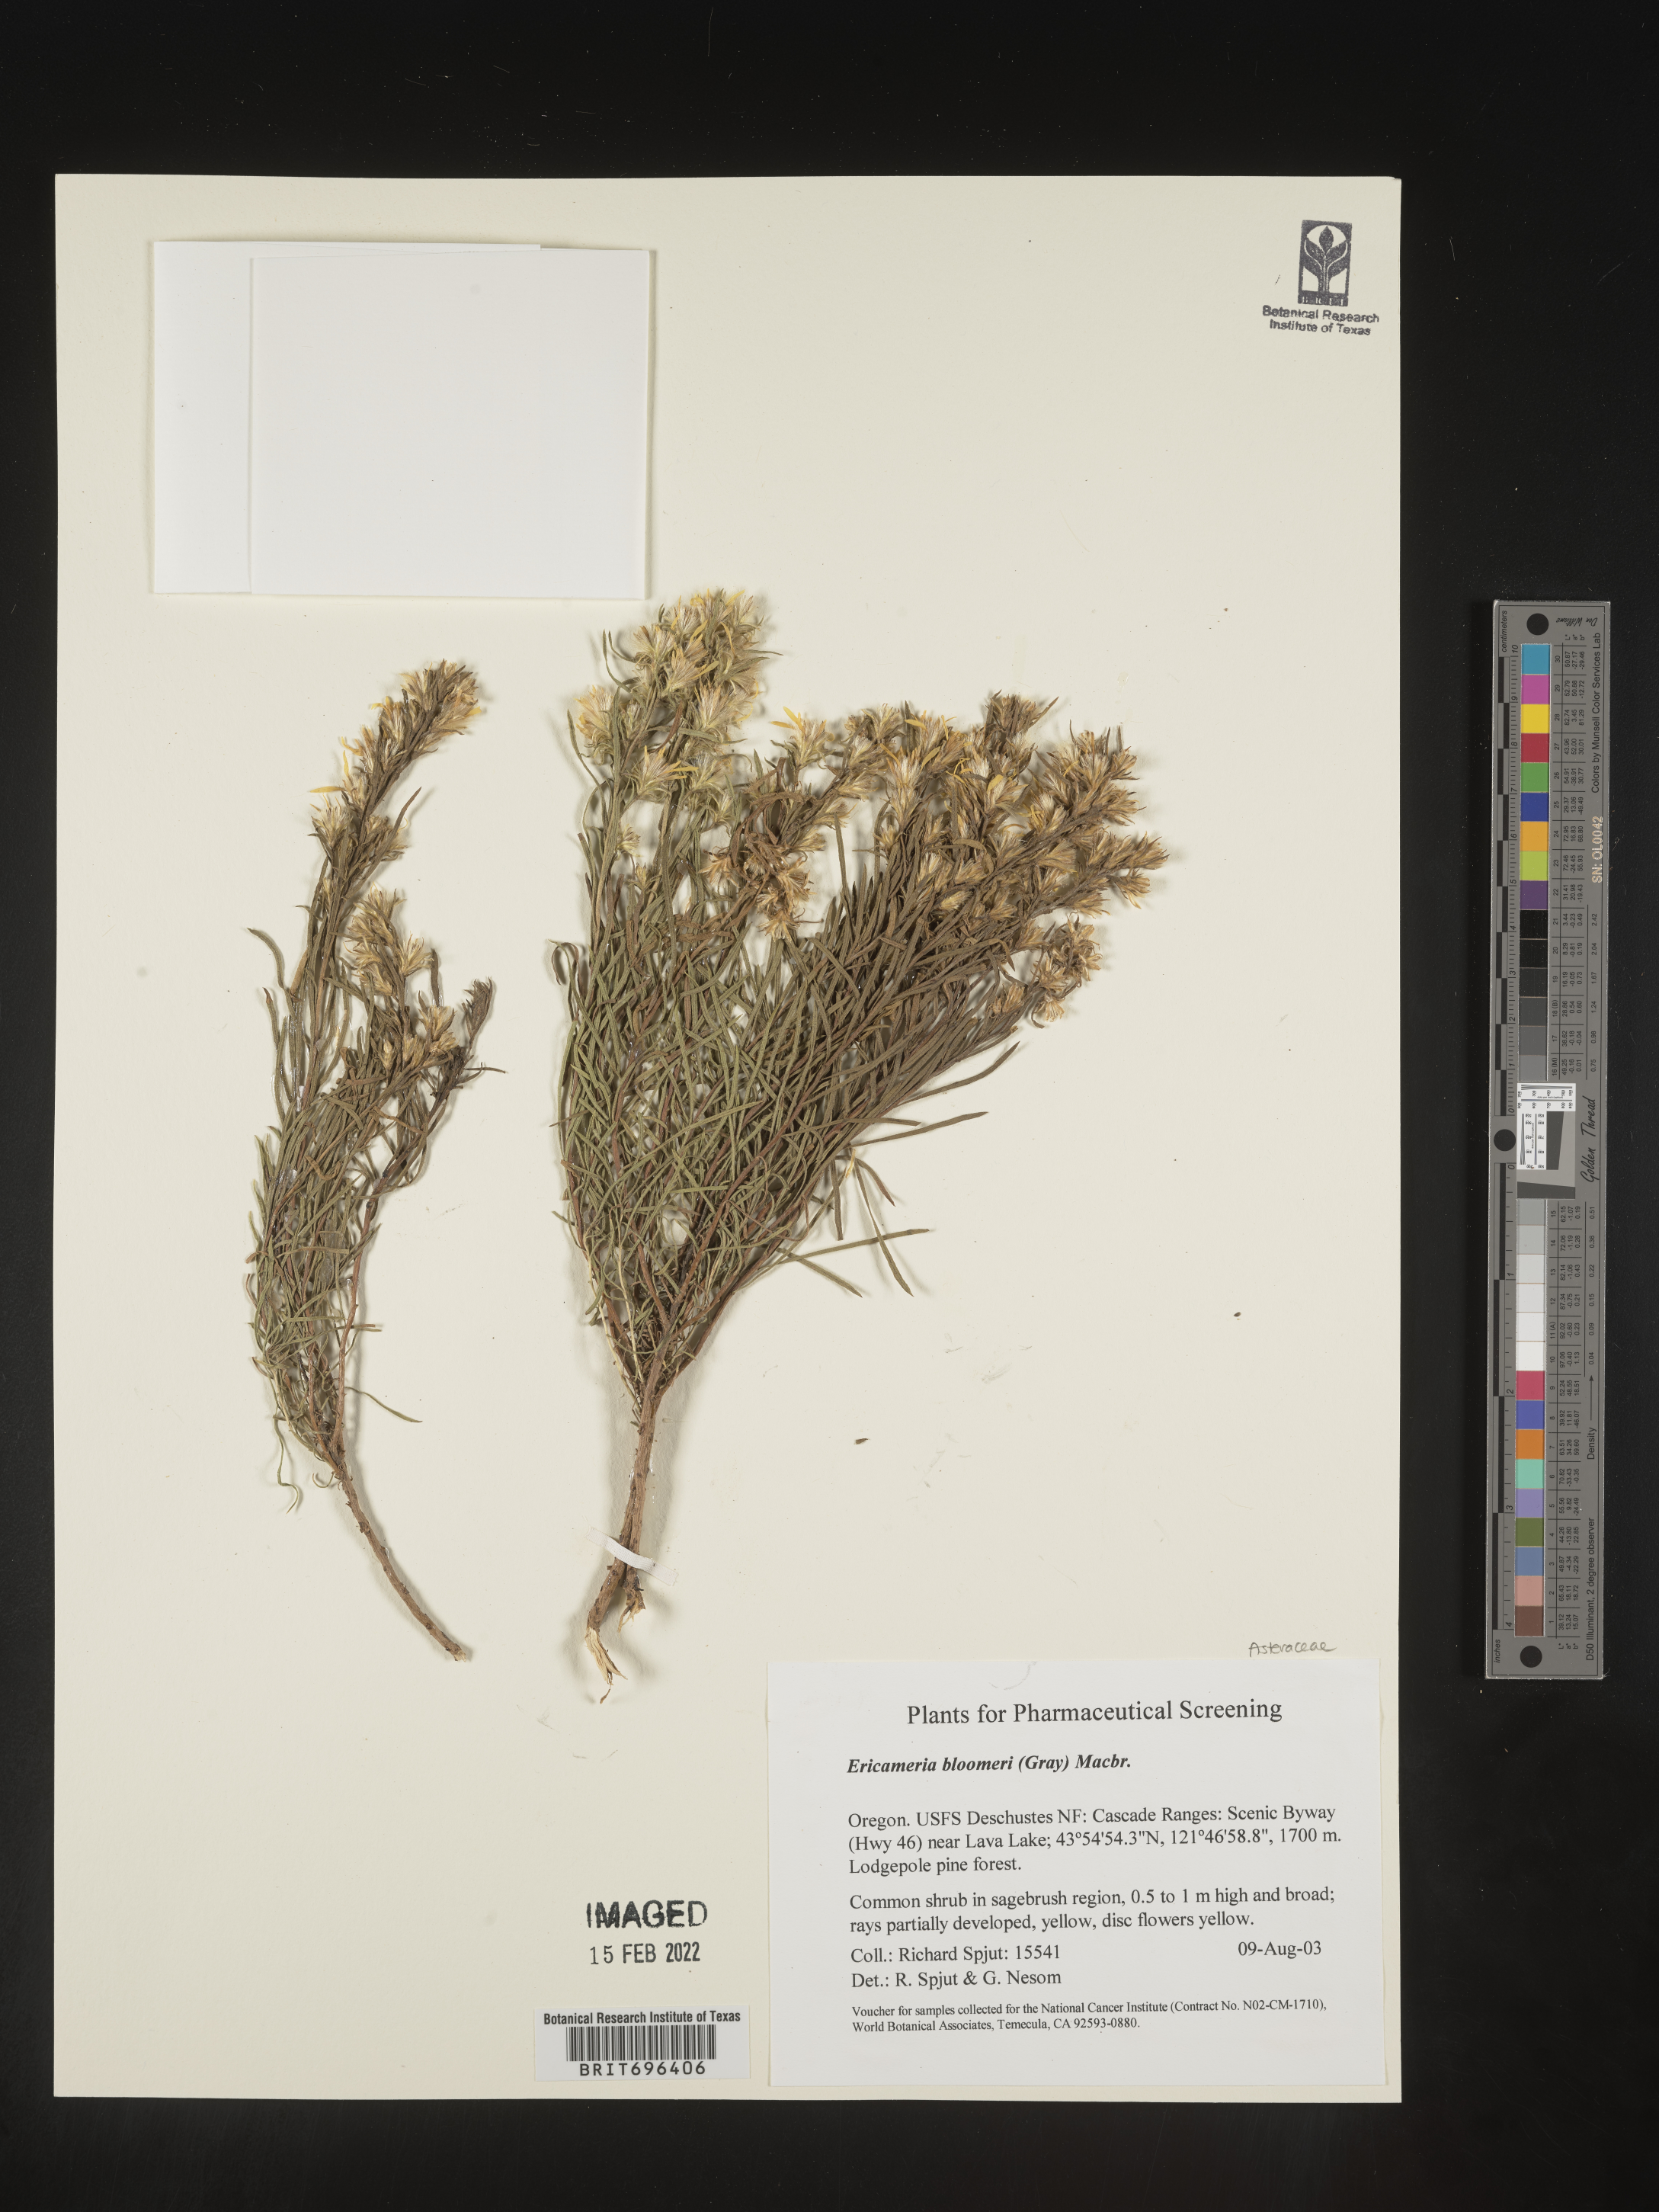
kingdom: Plantae
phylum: Tracheophyta
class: Magnoliopsida
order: Asterales
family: Asteraceae
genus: Ericameria
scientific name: Ericameria bloomeri
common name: Bloomer's goldenbush
